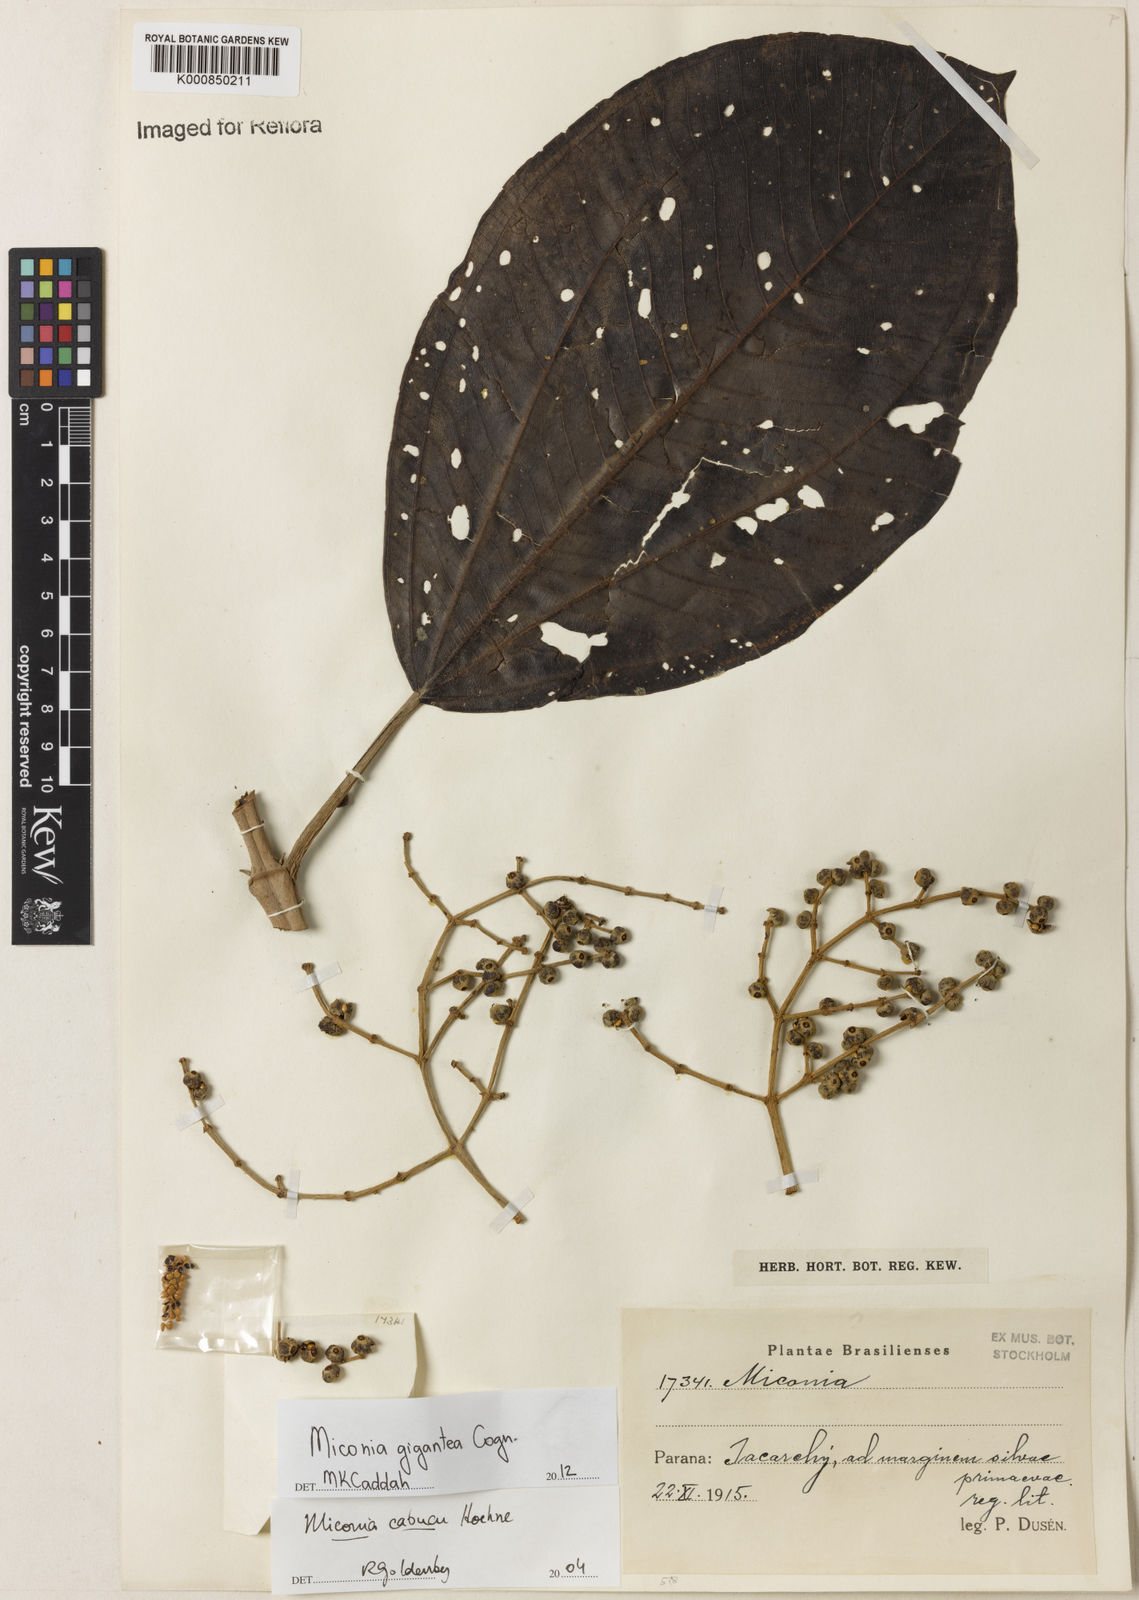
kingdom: Plantae
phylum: Tracheophyta
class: Magnoliopsida
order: Myrtales
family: Melastomataceae
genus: Miconia
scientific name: Miconia formosa
